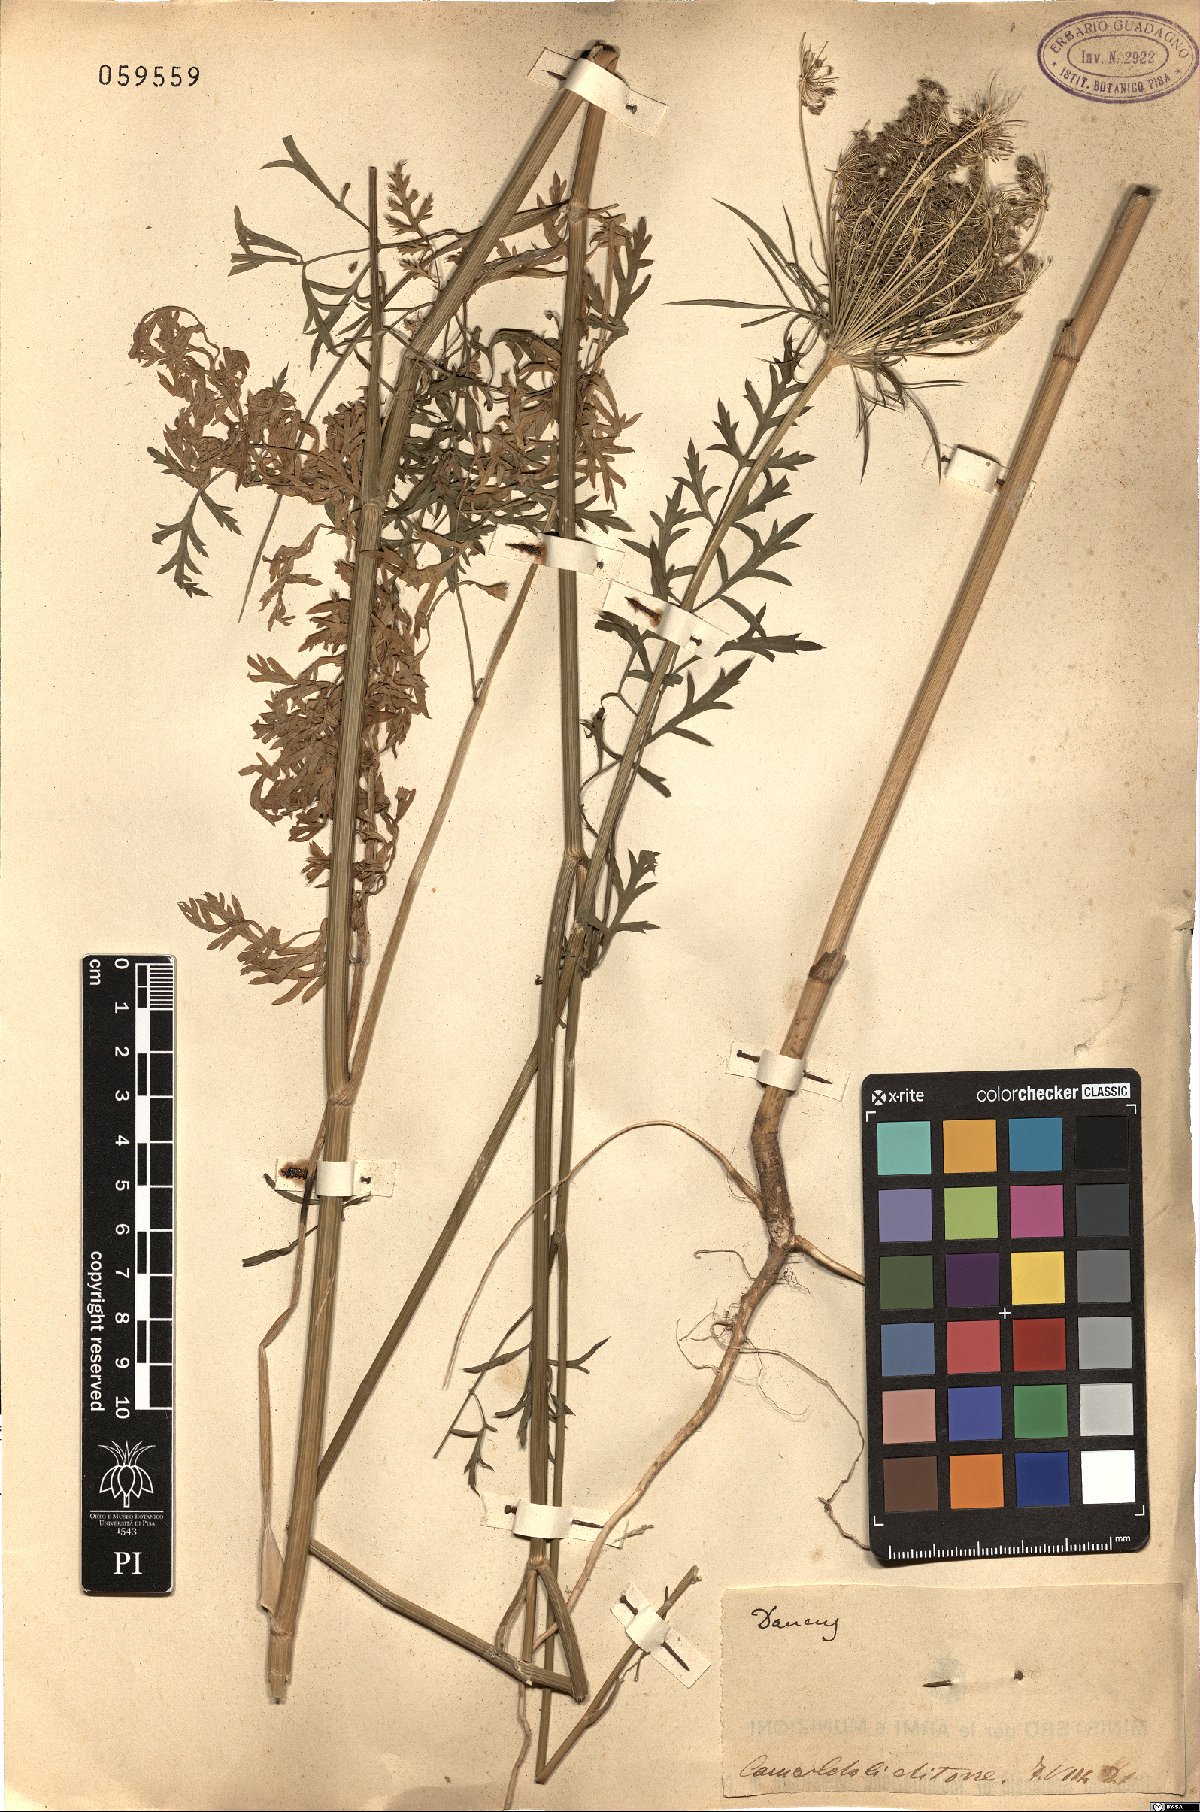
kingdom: Plantae
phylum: Tracheophyta
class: Magnoliopsida
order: Apiales
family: Apiaceae
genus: Daucus
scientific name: Daucus
